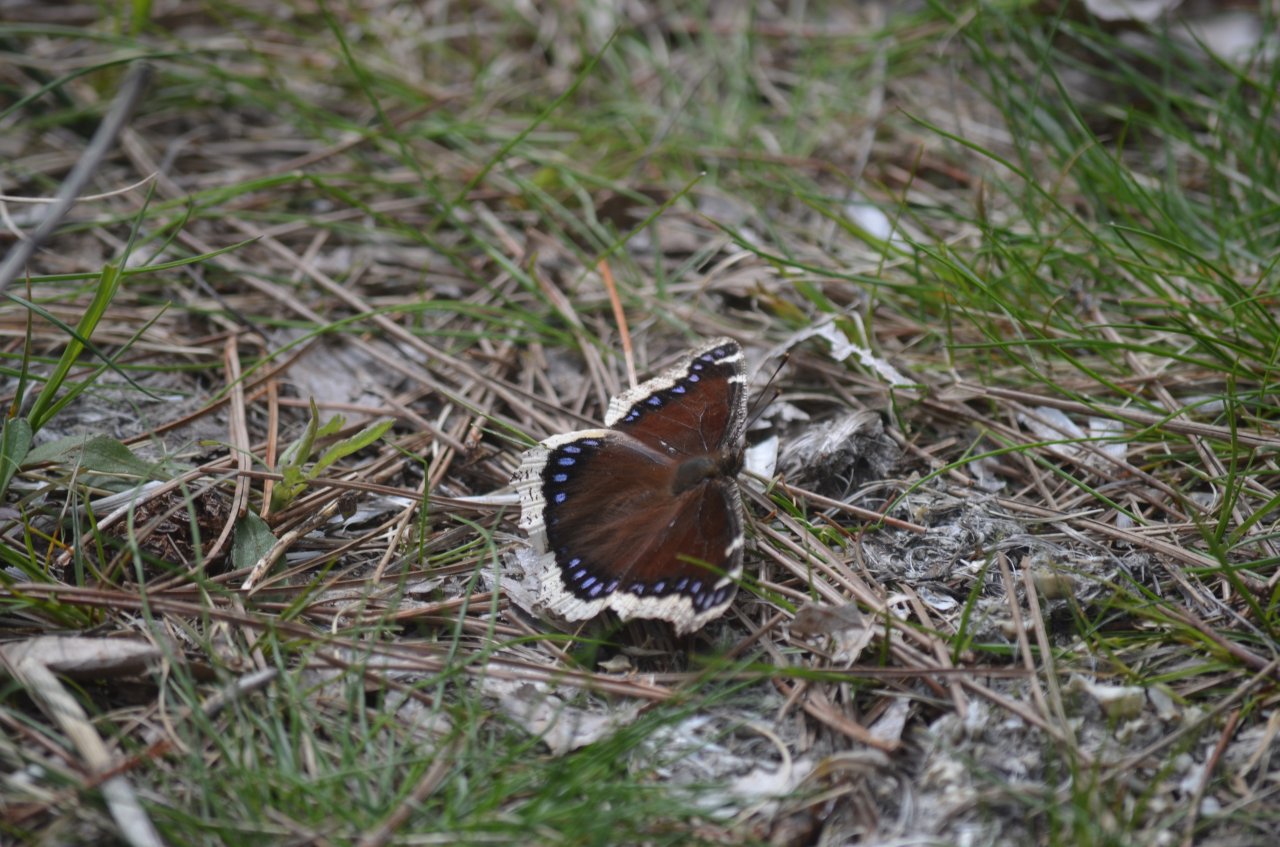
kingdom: Animalia
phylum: Arthropoda
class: Insecta
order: Lepidoptera
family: Nymphalidae
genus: Nymphalis
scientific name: Nymphalis antiopa
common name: Mourning Cloak
